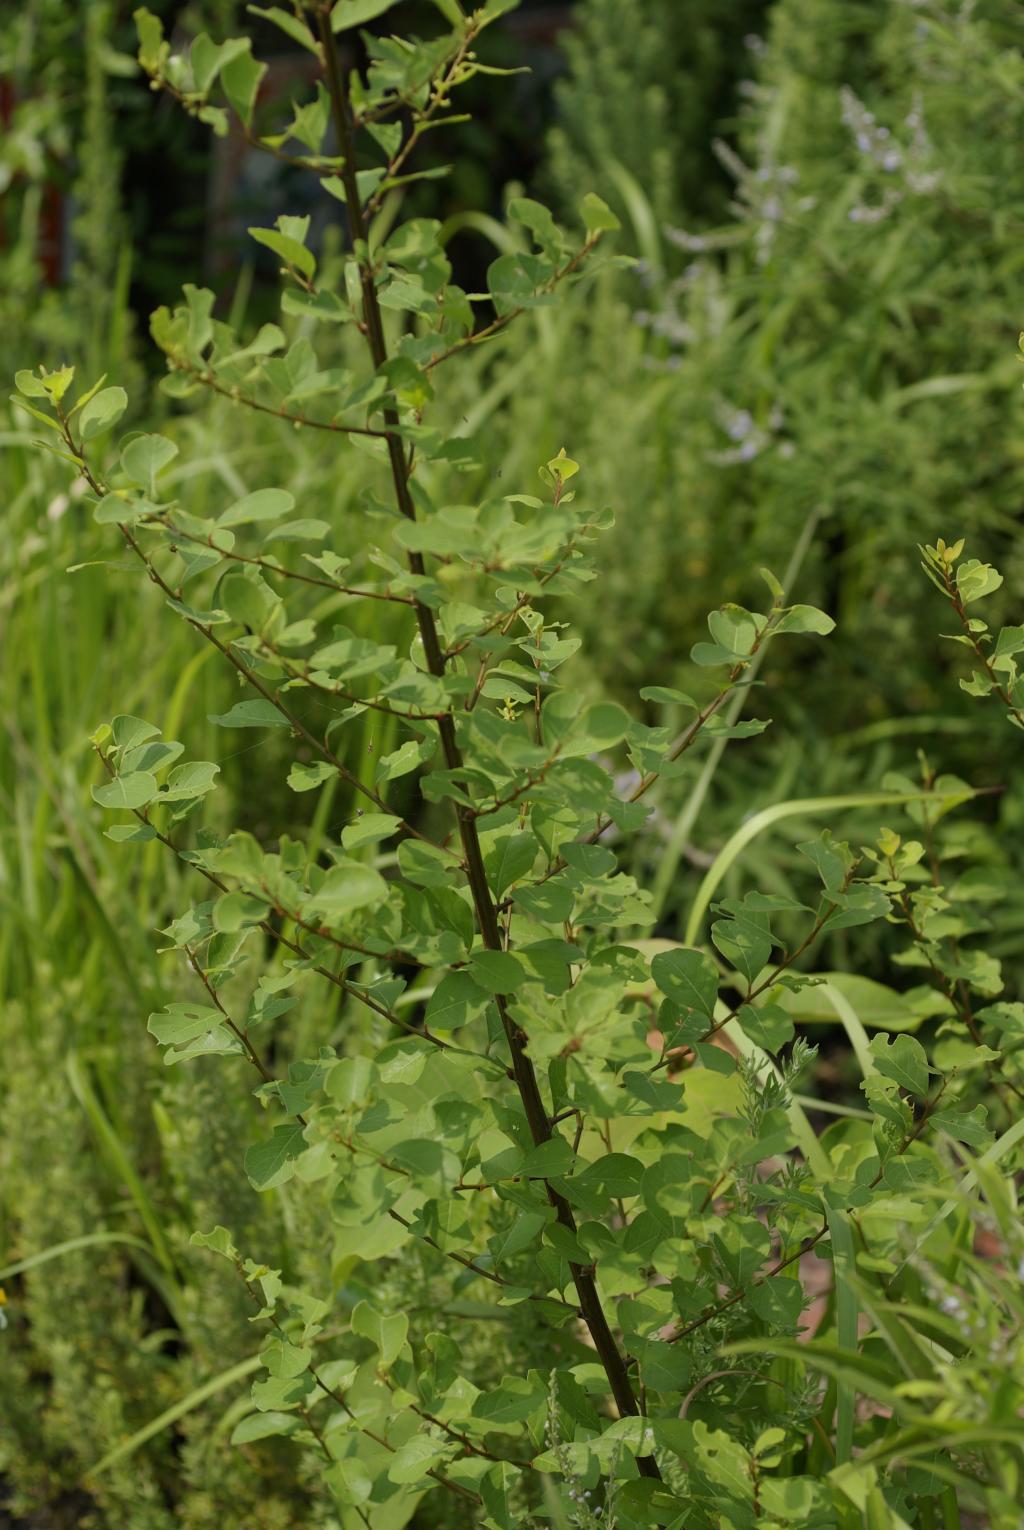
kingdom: Plantae
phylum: Tracheophyta
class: Magnoliopsida
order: Malpighiales
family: Phyllanthaceae
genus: Flueggea
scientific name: Flueggea suffruticosa
